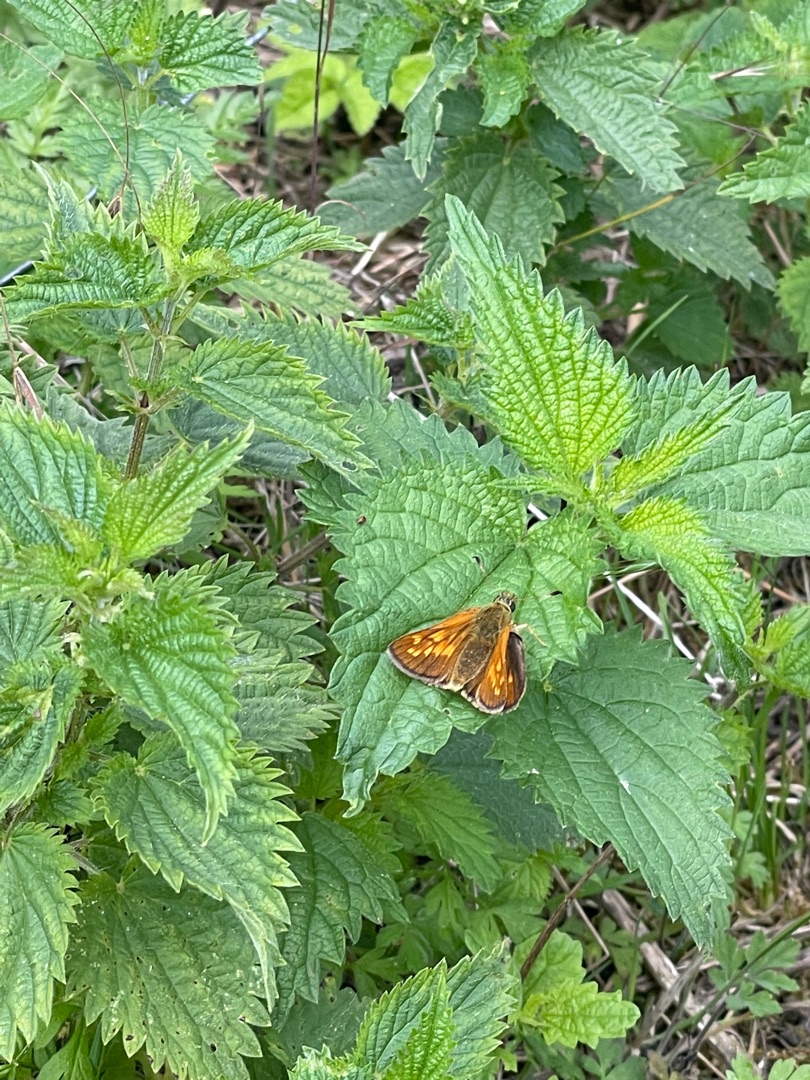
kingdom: Animalia
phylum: Arthropoda
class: Insecta
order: Lepidoptera
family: Hesperiidae
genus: Ochlodes
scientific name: Ochlodes venata
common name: Stor bredpande
